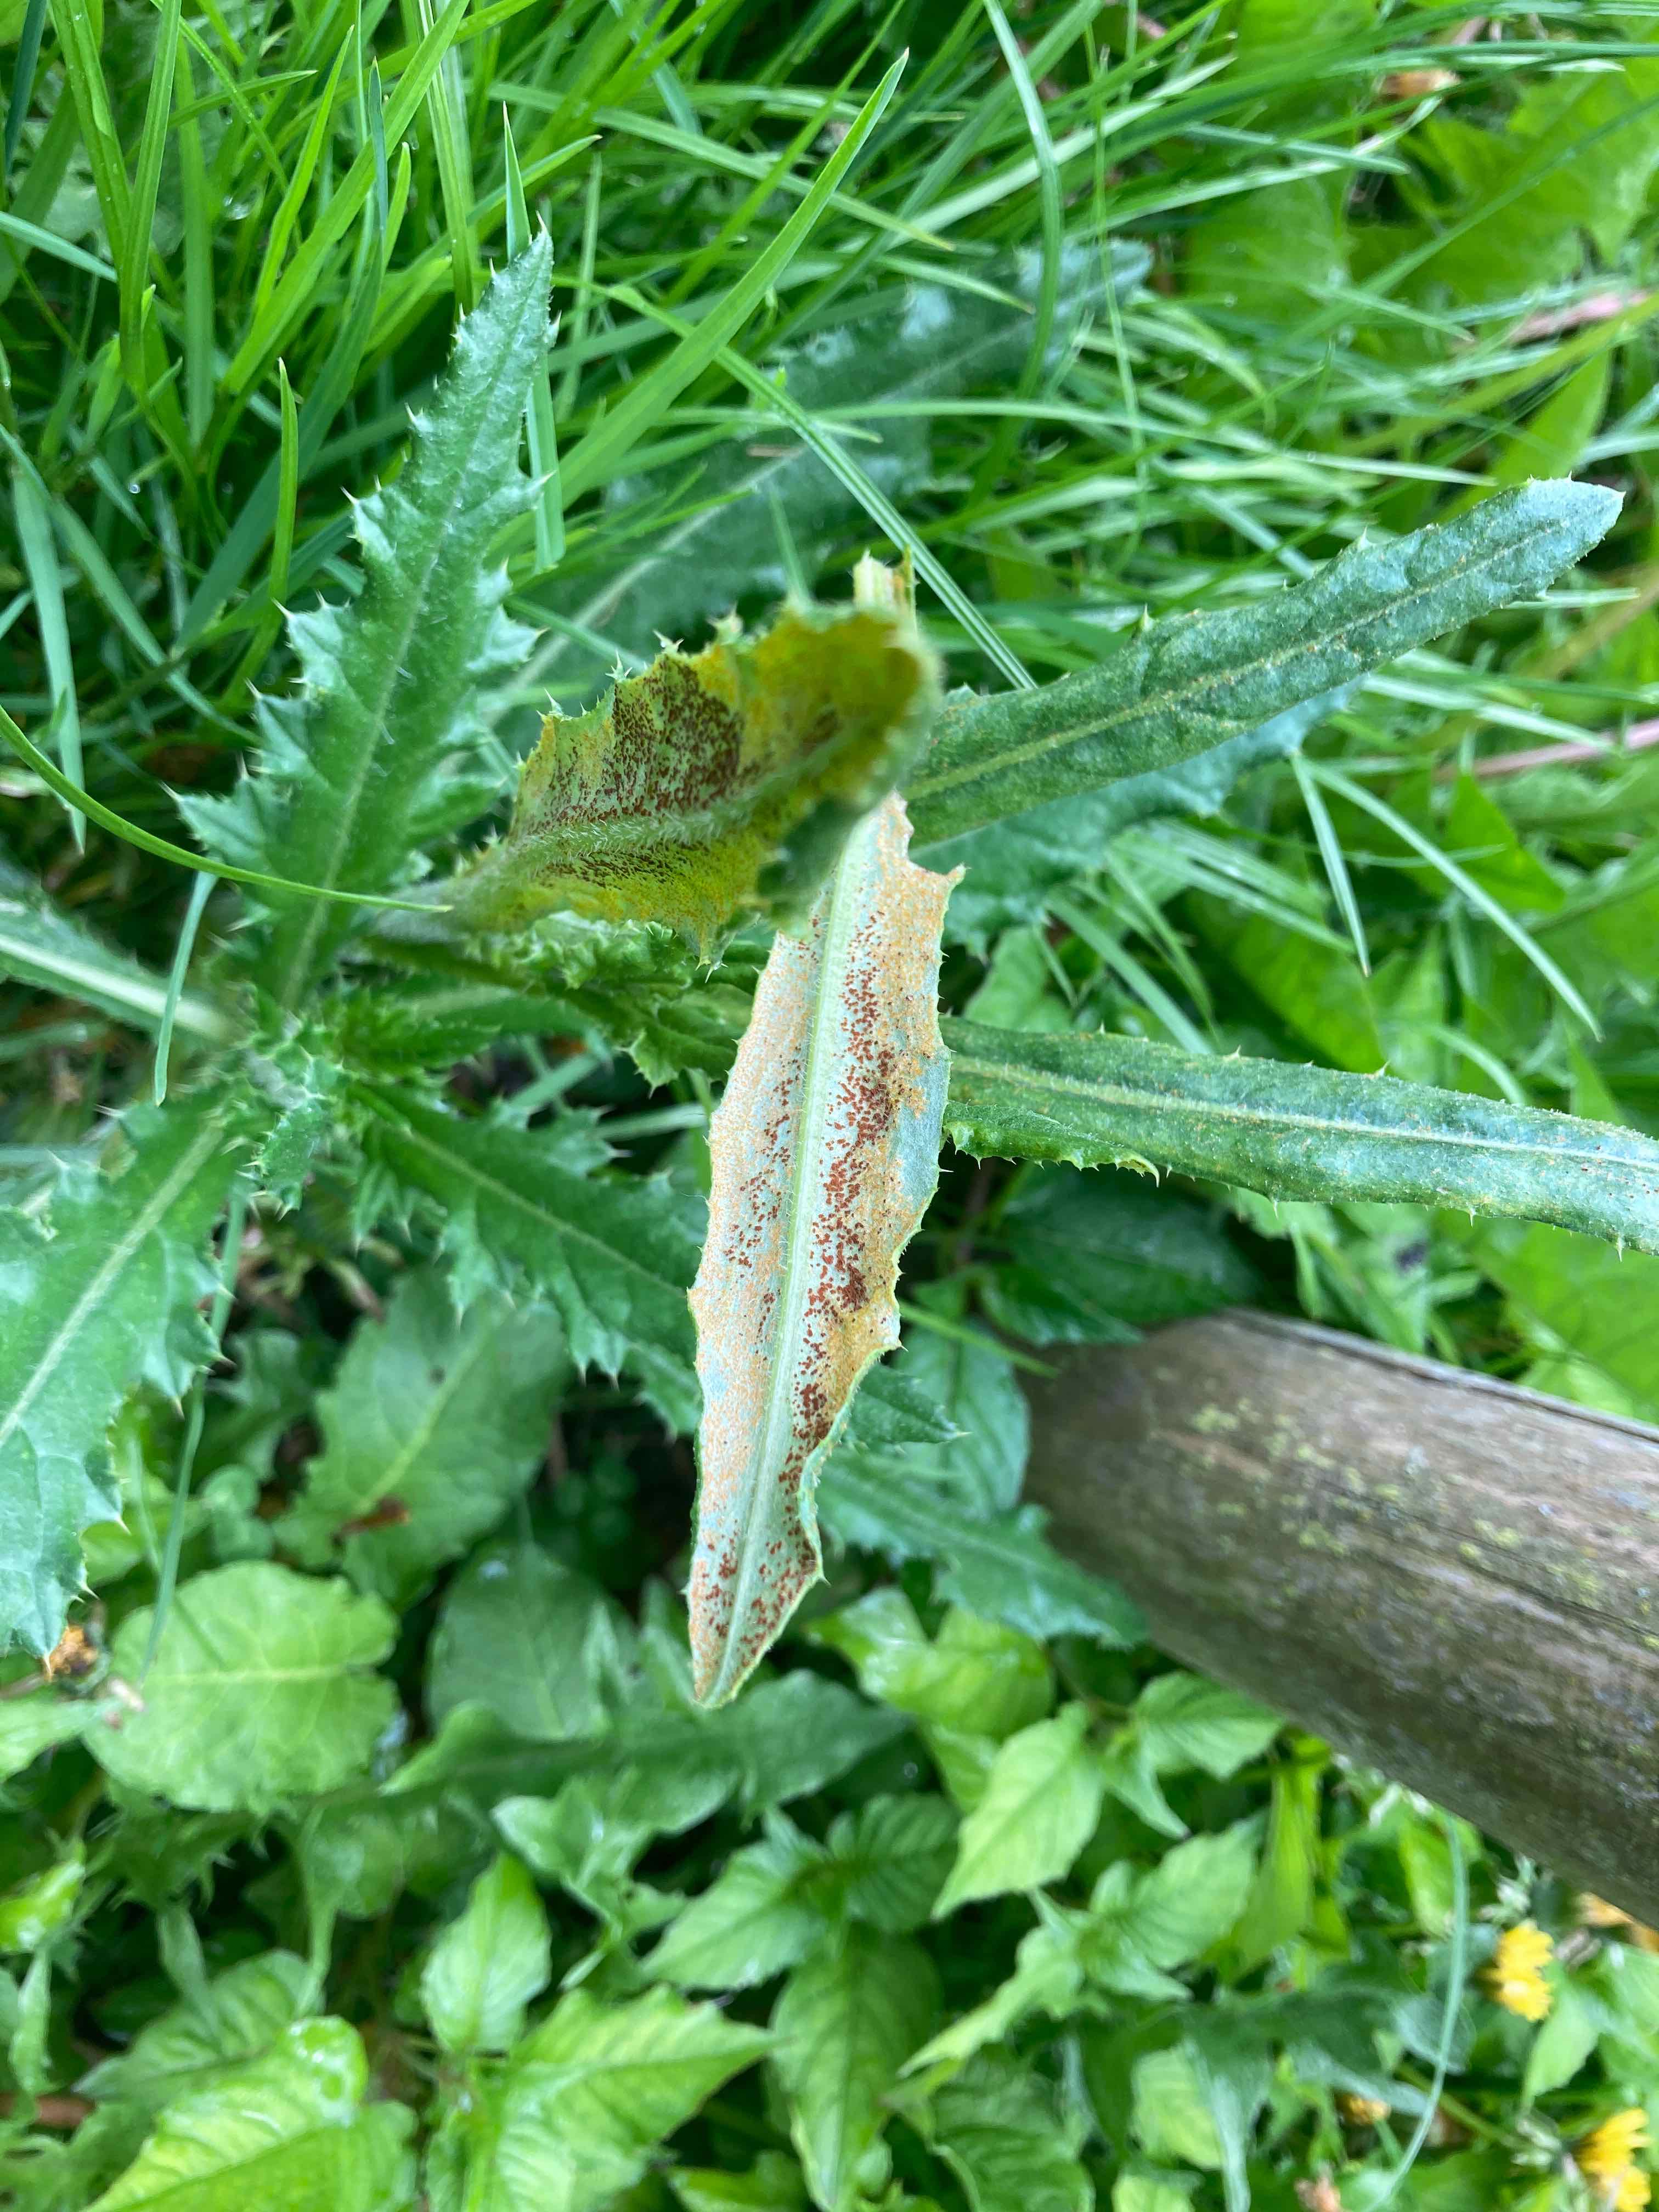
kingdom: Fungi
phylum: Basidiomycota
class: Pucciniomycetes
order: Pucciniales
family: Pucciniaceae
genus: Puccinia
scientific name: Puccinia suaveolens
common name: tidsel-tvecellerust
